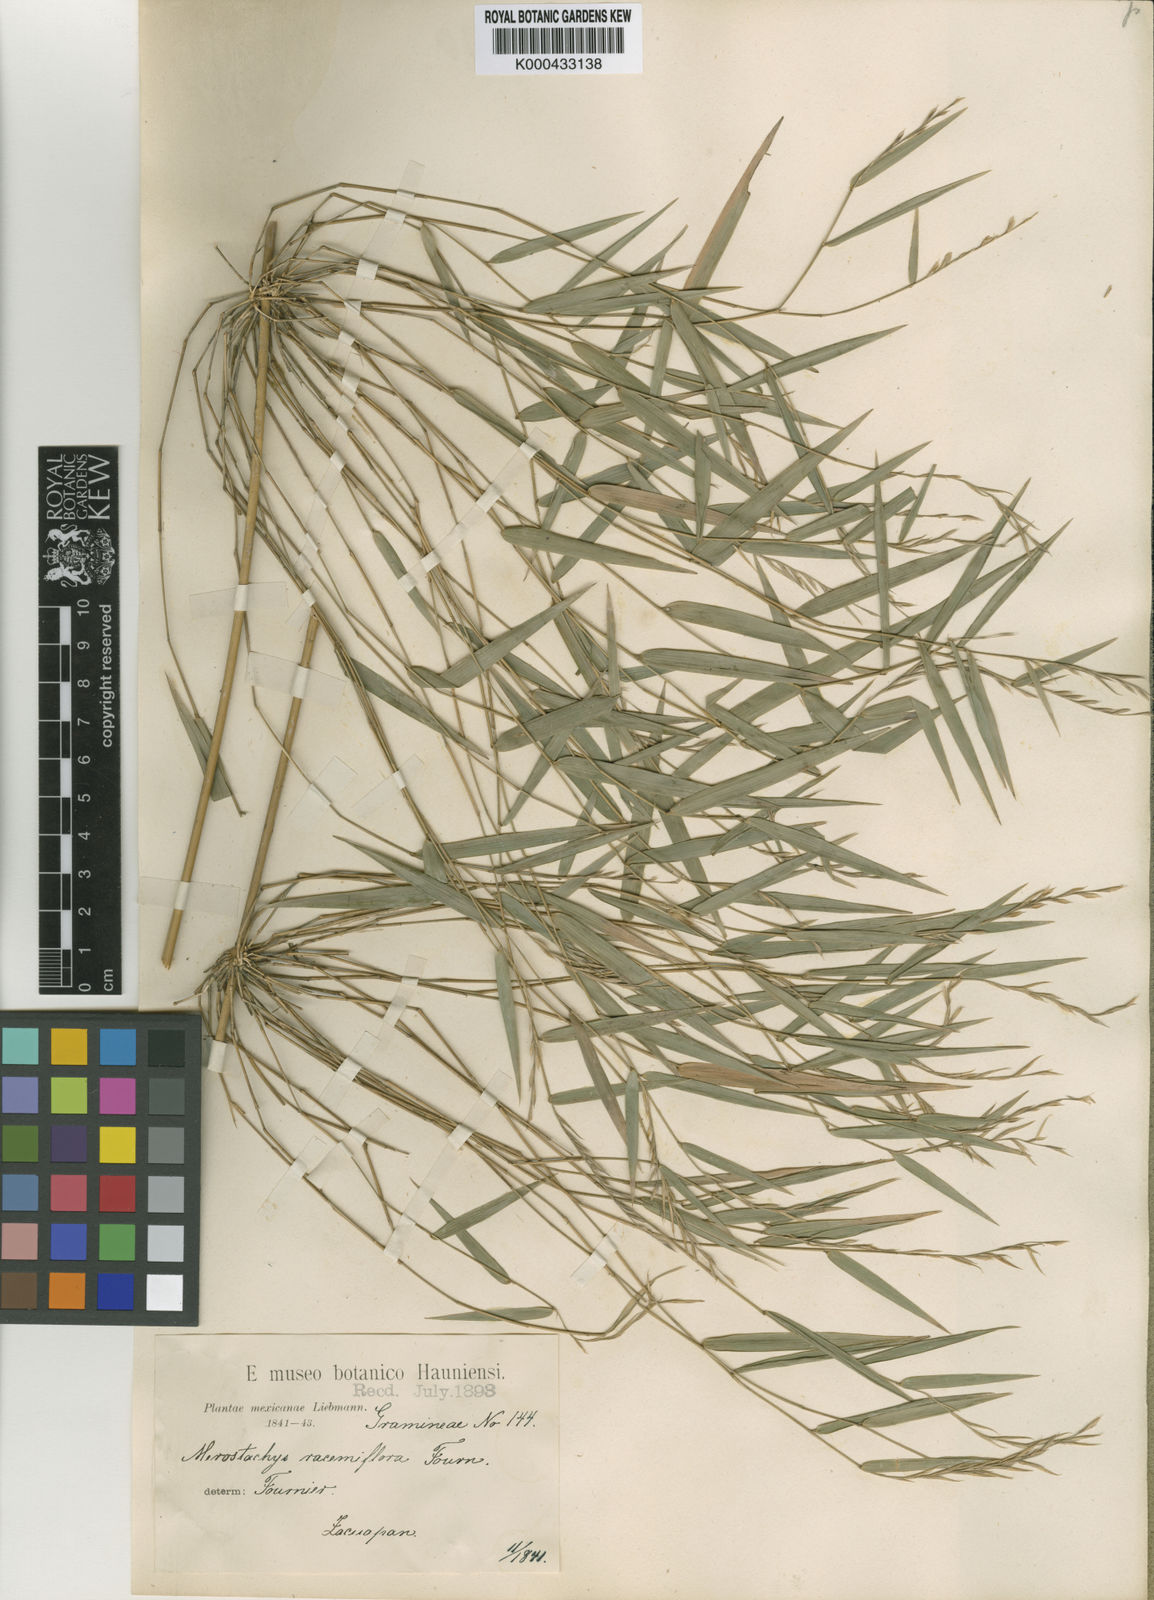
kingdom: Plantae
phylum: Tracheophyta
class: Liliopsida
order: Poales
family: Poaceae
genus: Rhipidocladum
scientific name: Rhipidocladum racemiflorum
